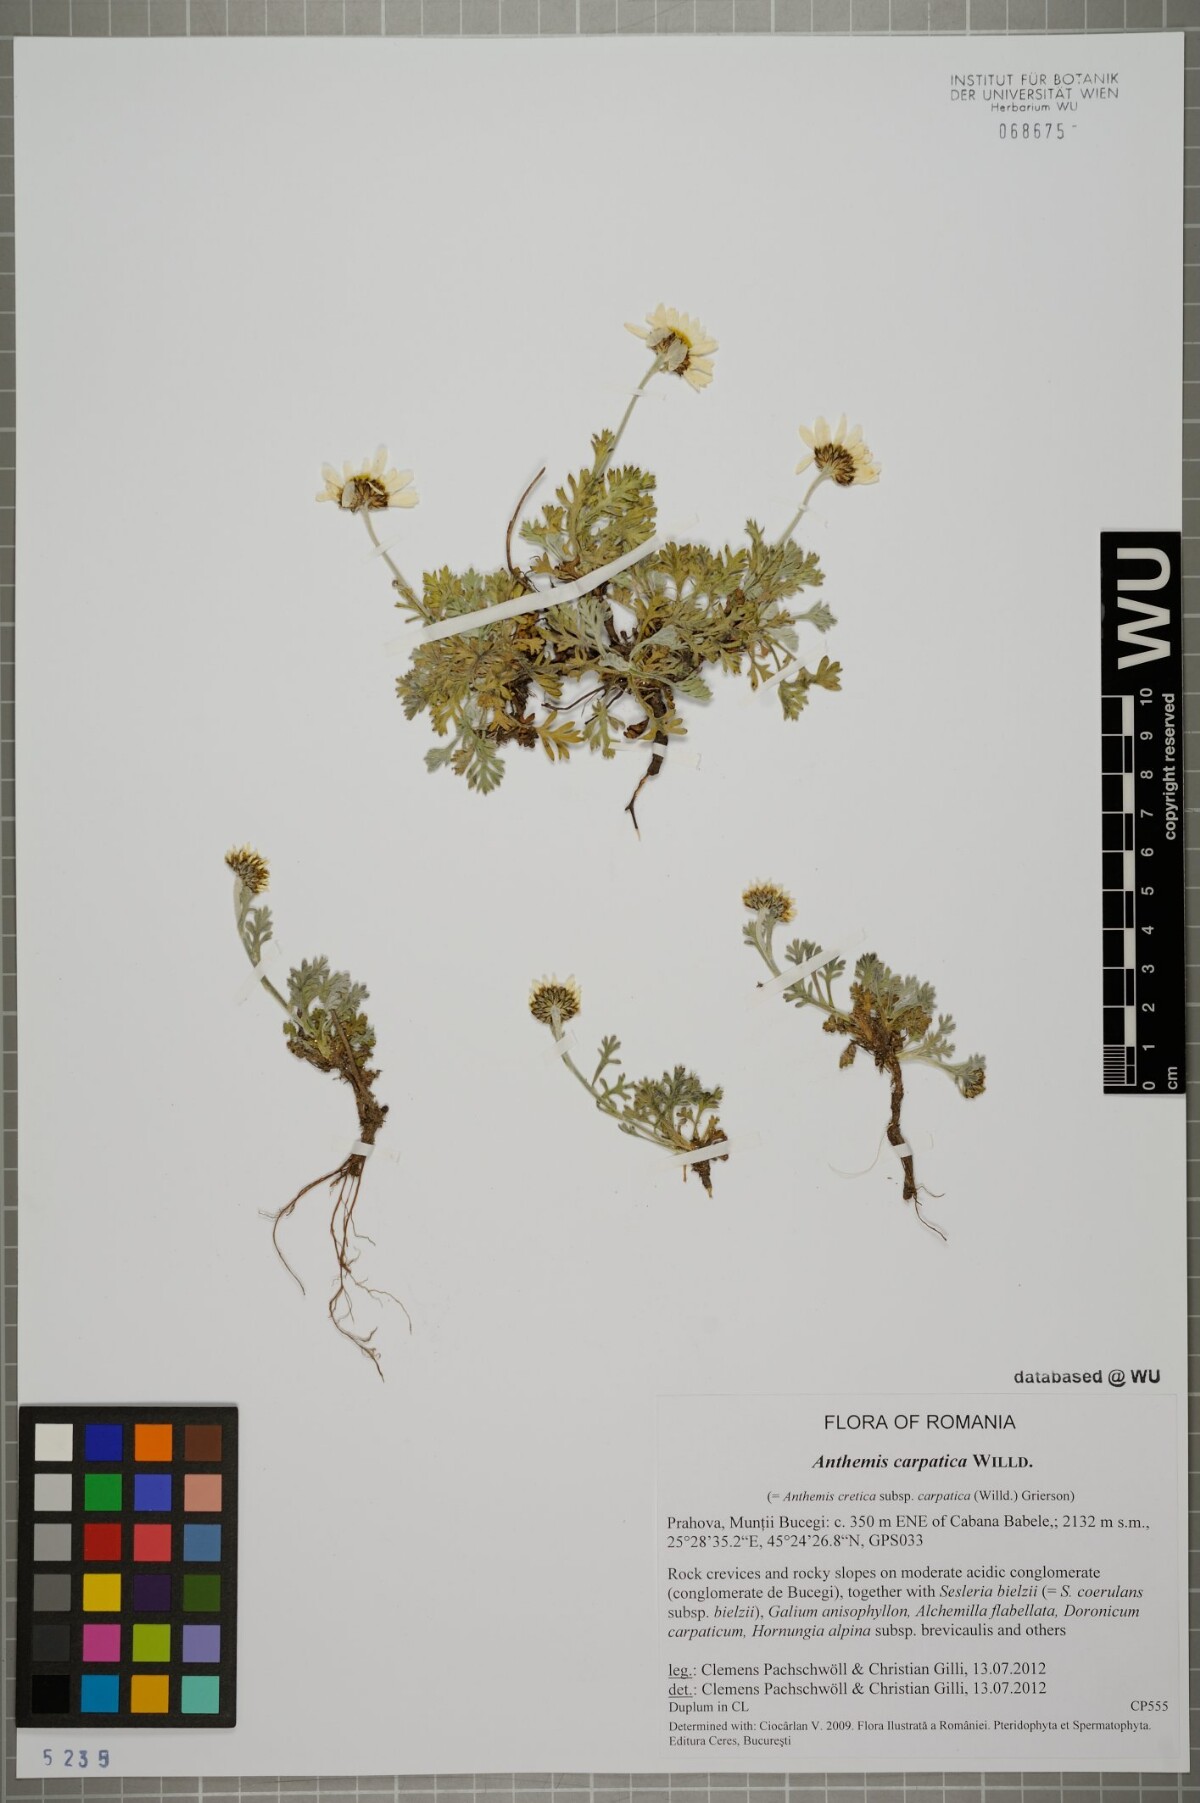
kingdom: Plantae
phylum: Tracheophyta
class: Magnoliopsida
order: Asterales
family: Asteraceae
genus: Anthemis
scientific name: Anthemis cretica
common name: Mountain dog-daisy
